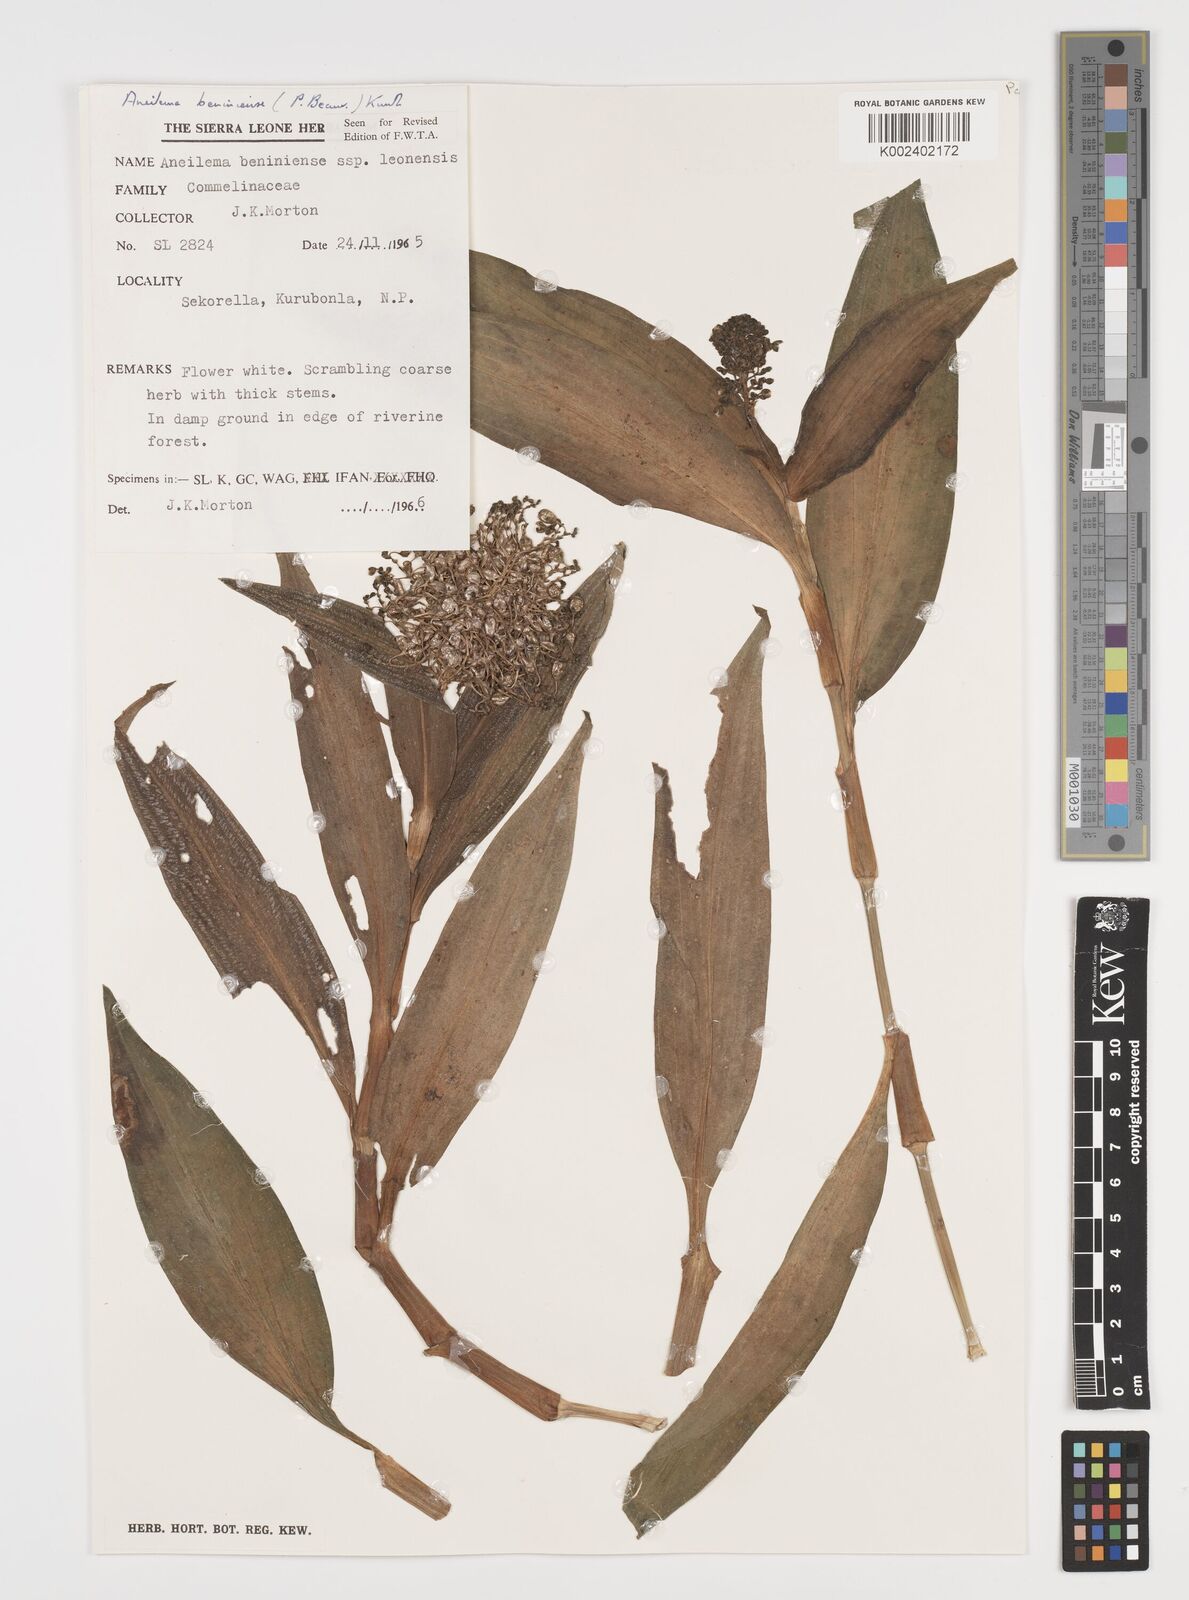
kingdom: Plantae
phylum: Tracheophyta
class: Liliopsida
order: Commelinales
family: Commelinaceae
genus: Aneilema
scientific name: Aneilema beniniense
